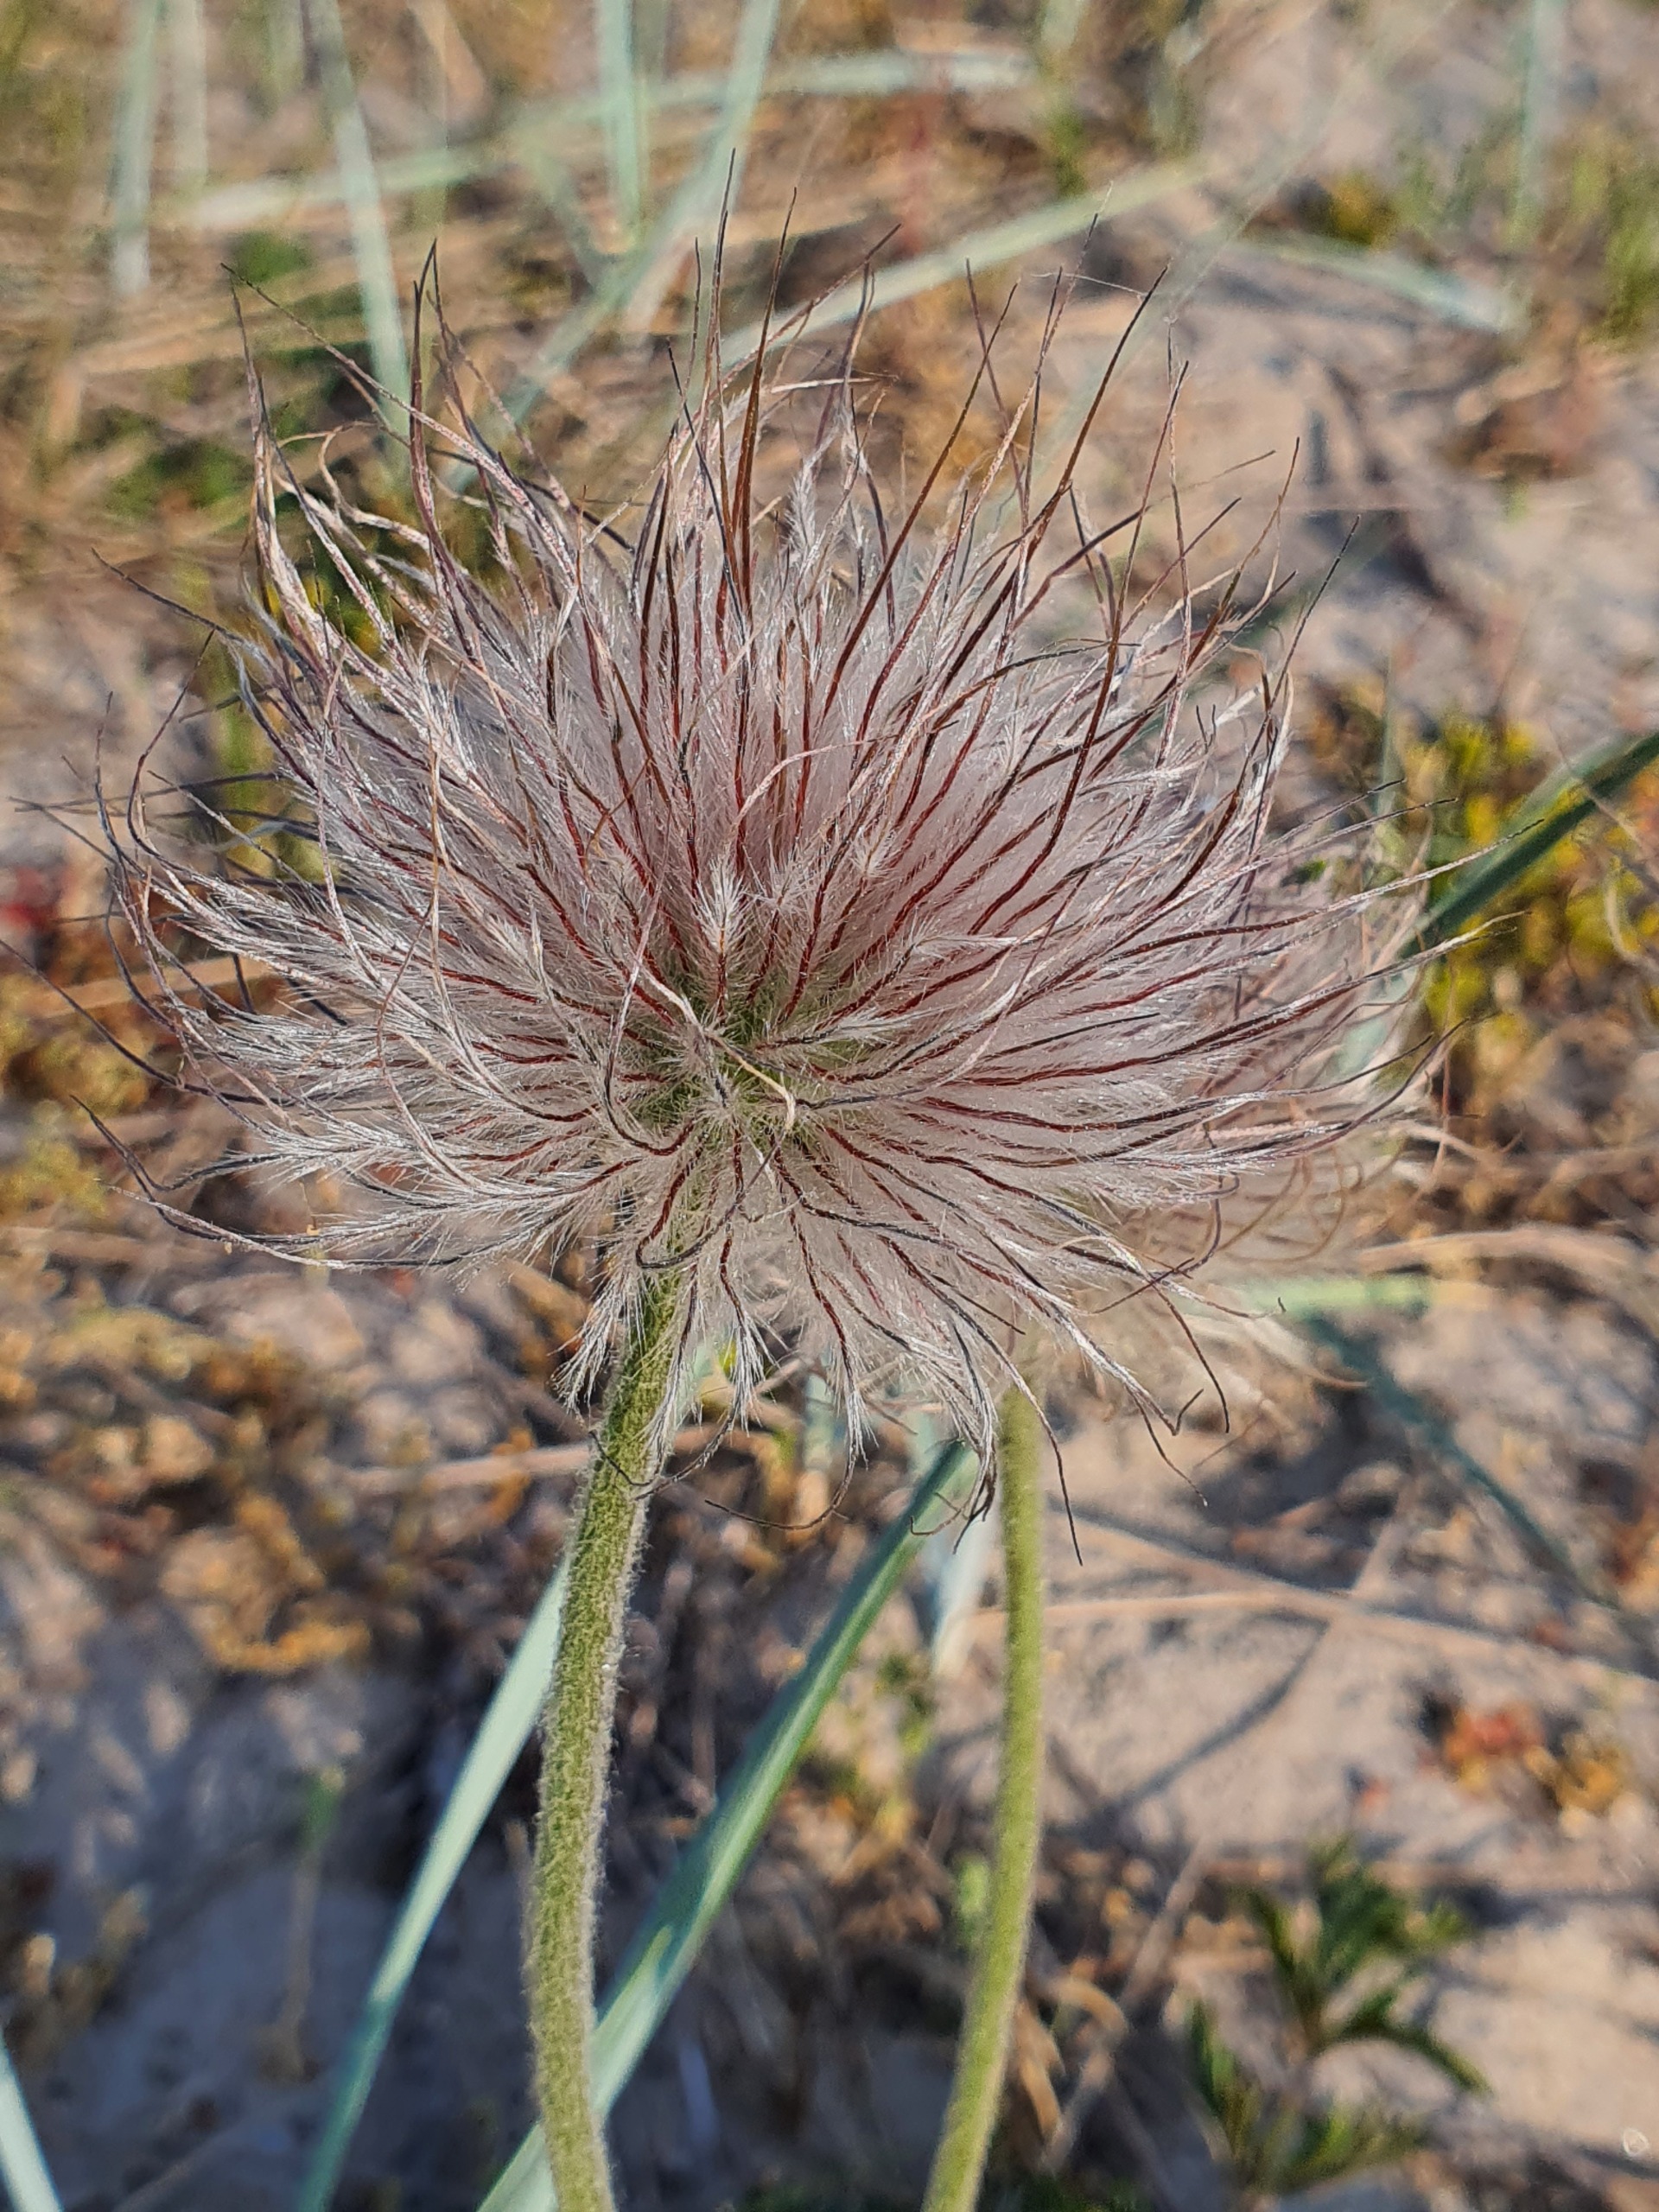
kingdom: Plantae
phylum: Tracheophyta
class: Magnoliopsida
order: Ranunculales
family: Ranunculaceae
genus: Pulsatilla
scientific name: Pulsatilla pratensis
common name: Nikkende kobjælde
